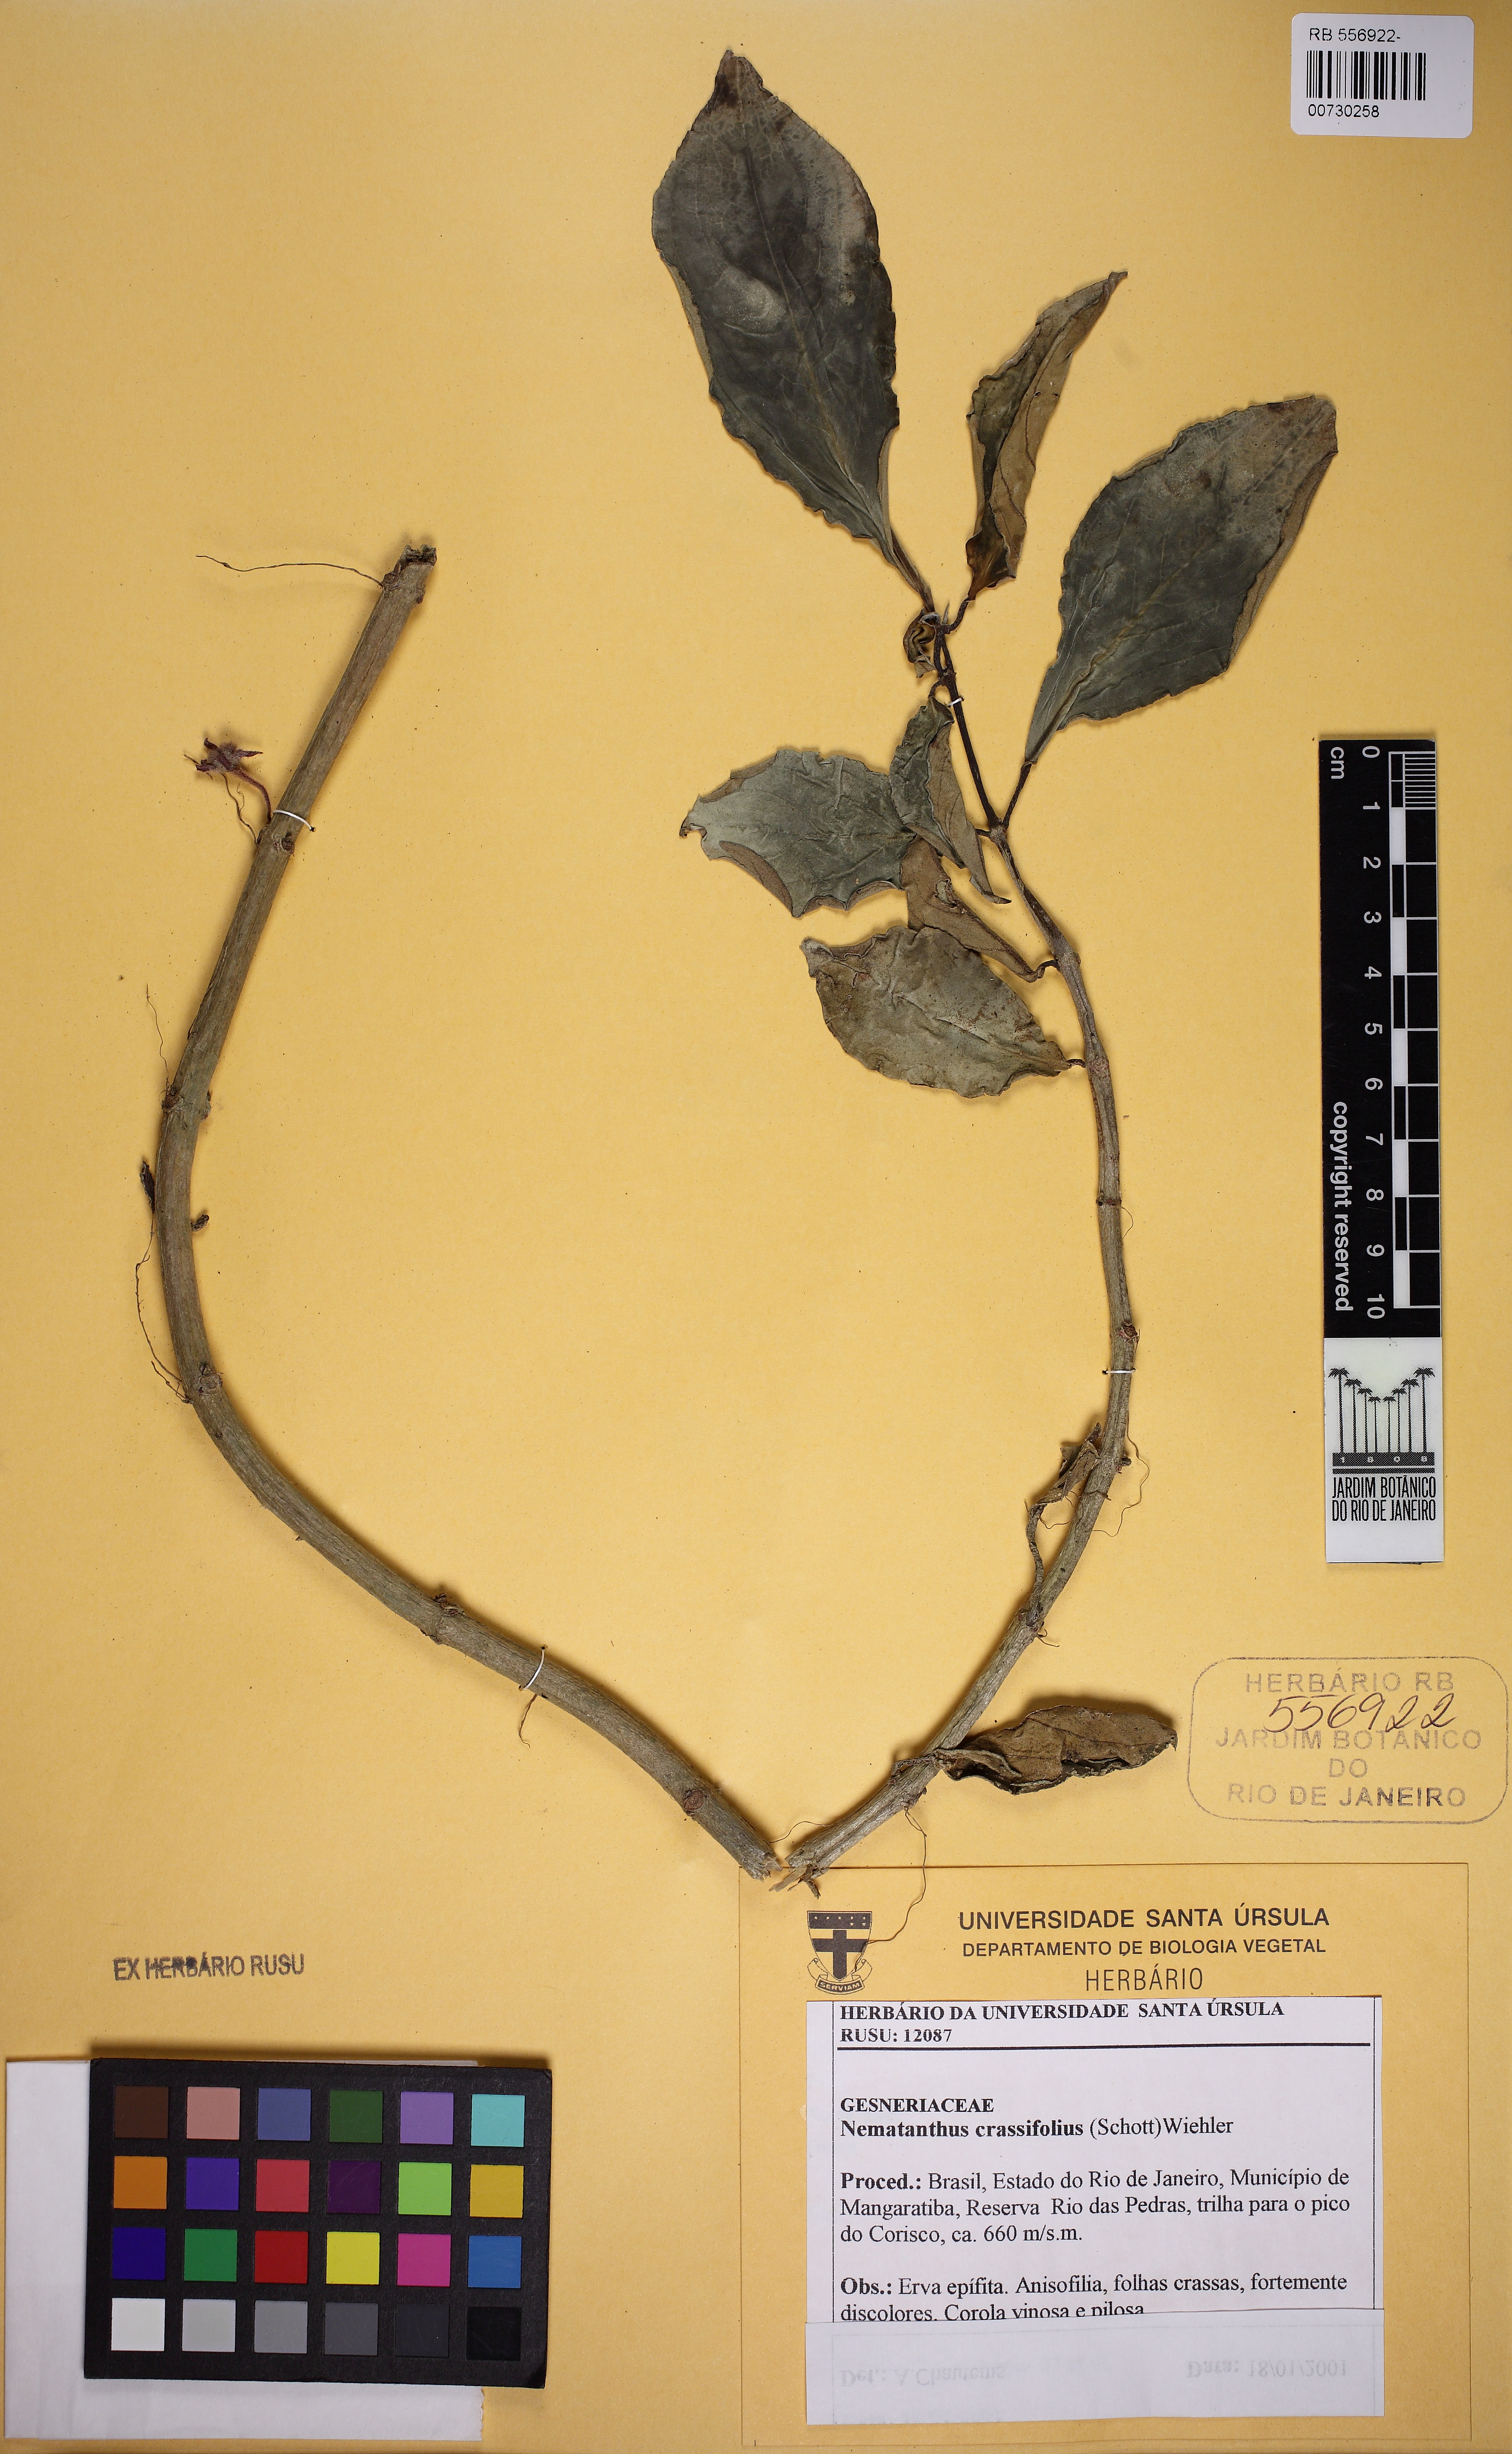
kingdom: Plantae
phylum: Tracheophyta
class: Magnoliopsida
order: Lamiales
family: Gesneriaceae
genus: Nematanthus
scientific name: Nematanthus crassifolius
